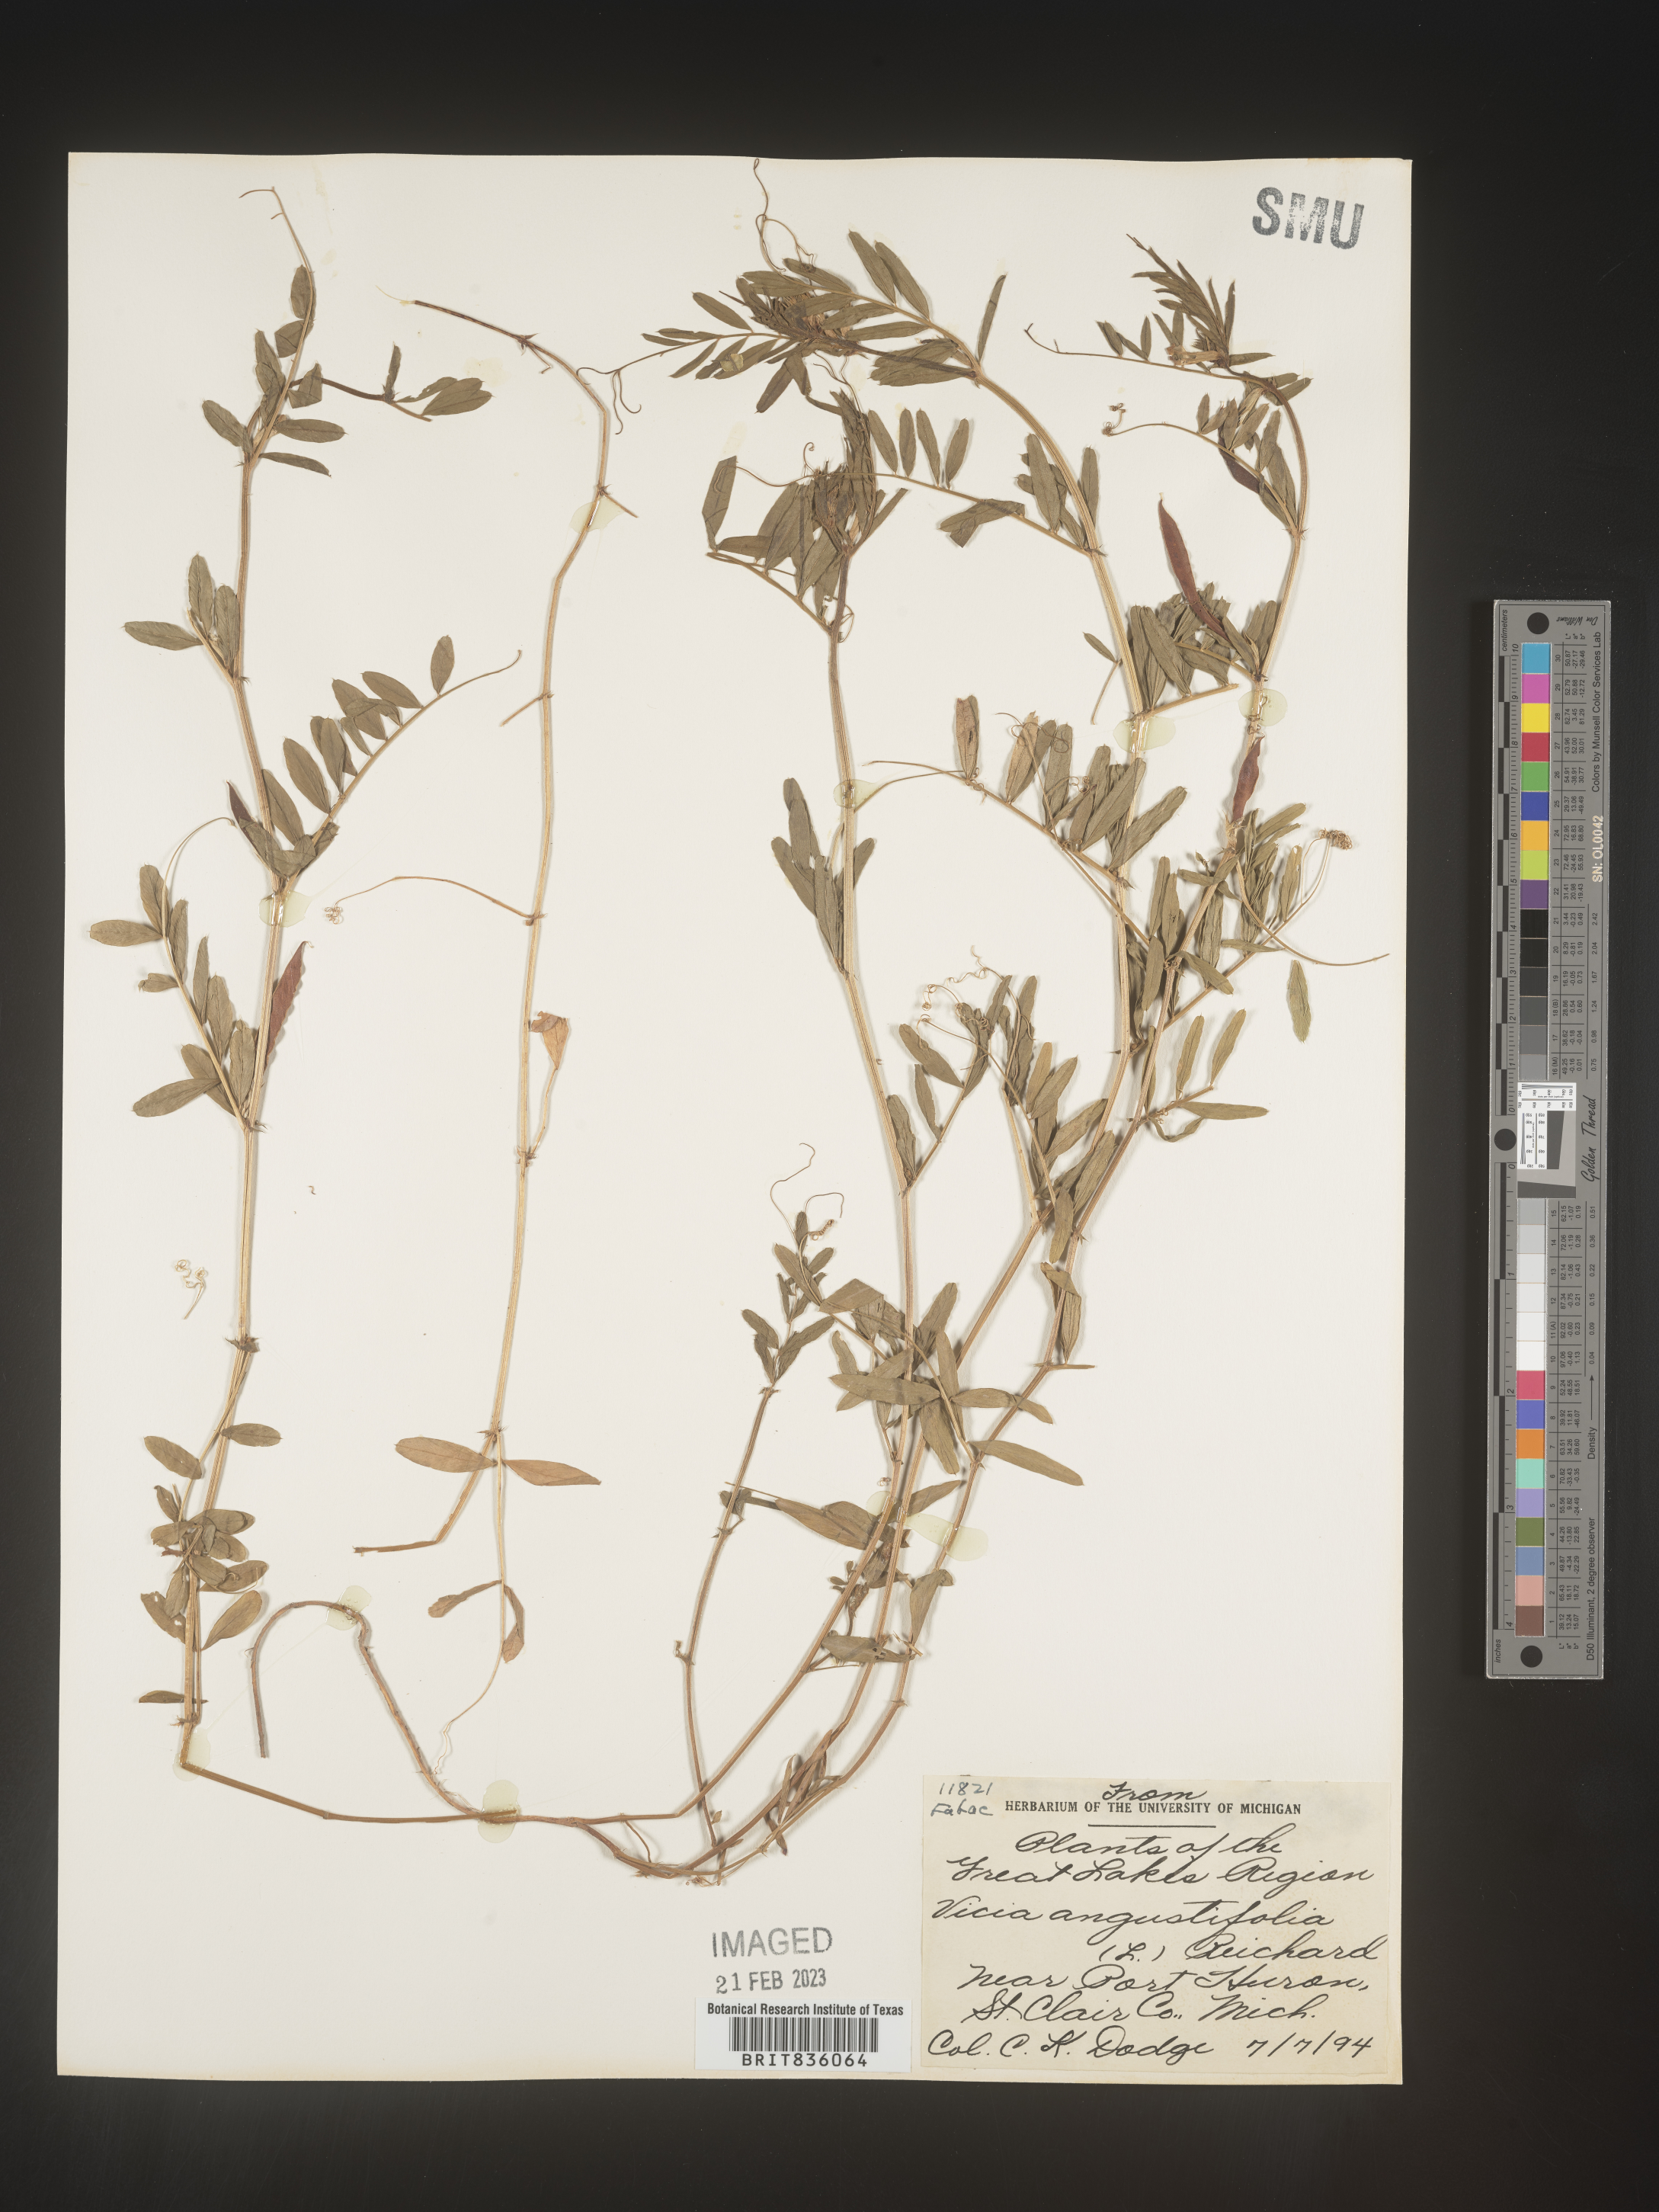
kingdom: Plantae
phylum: Tracheophyta
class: Magnoliopsida
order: Fabales
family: Fabaceae
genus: Vicia
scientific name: Vicia sativa
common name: Garden vetch
